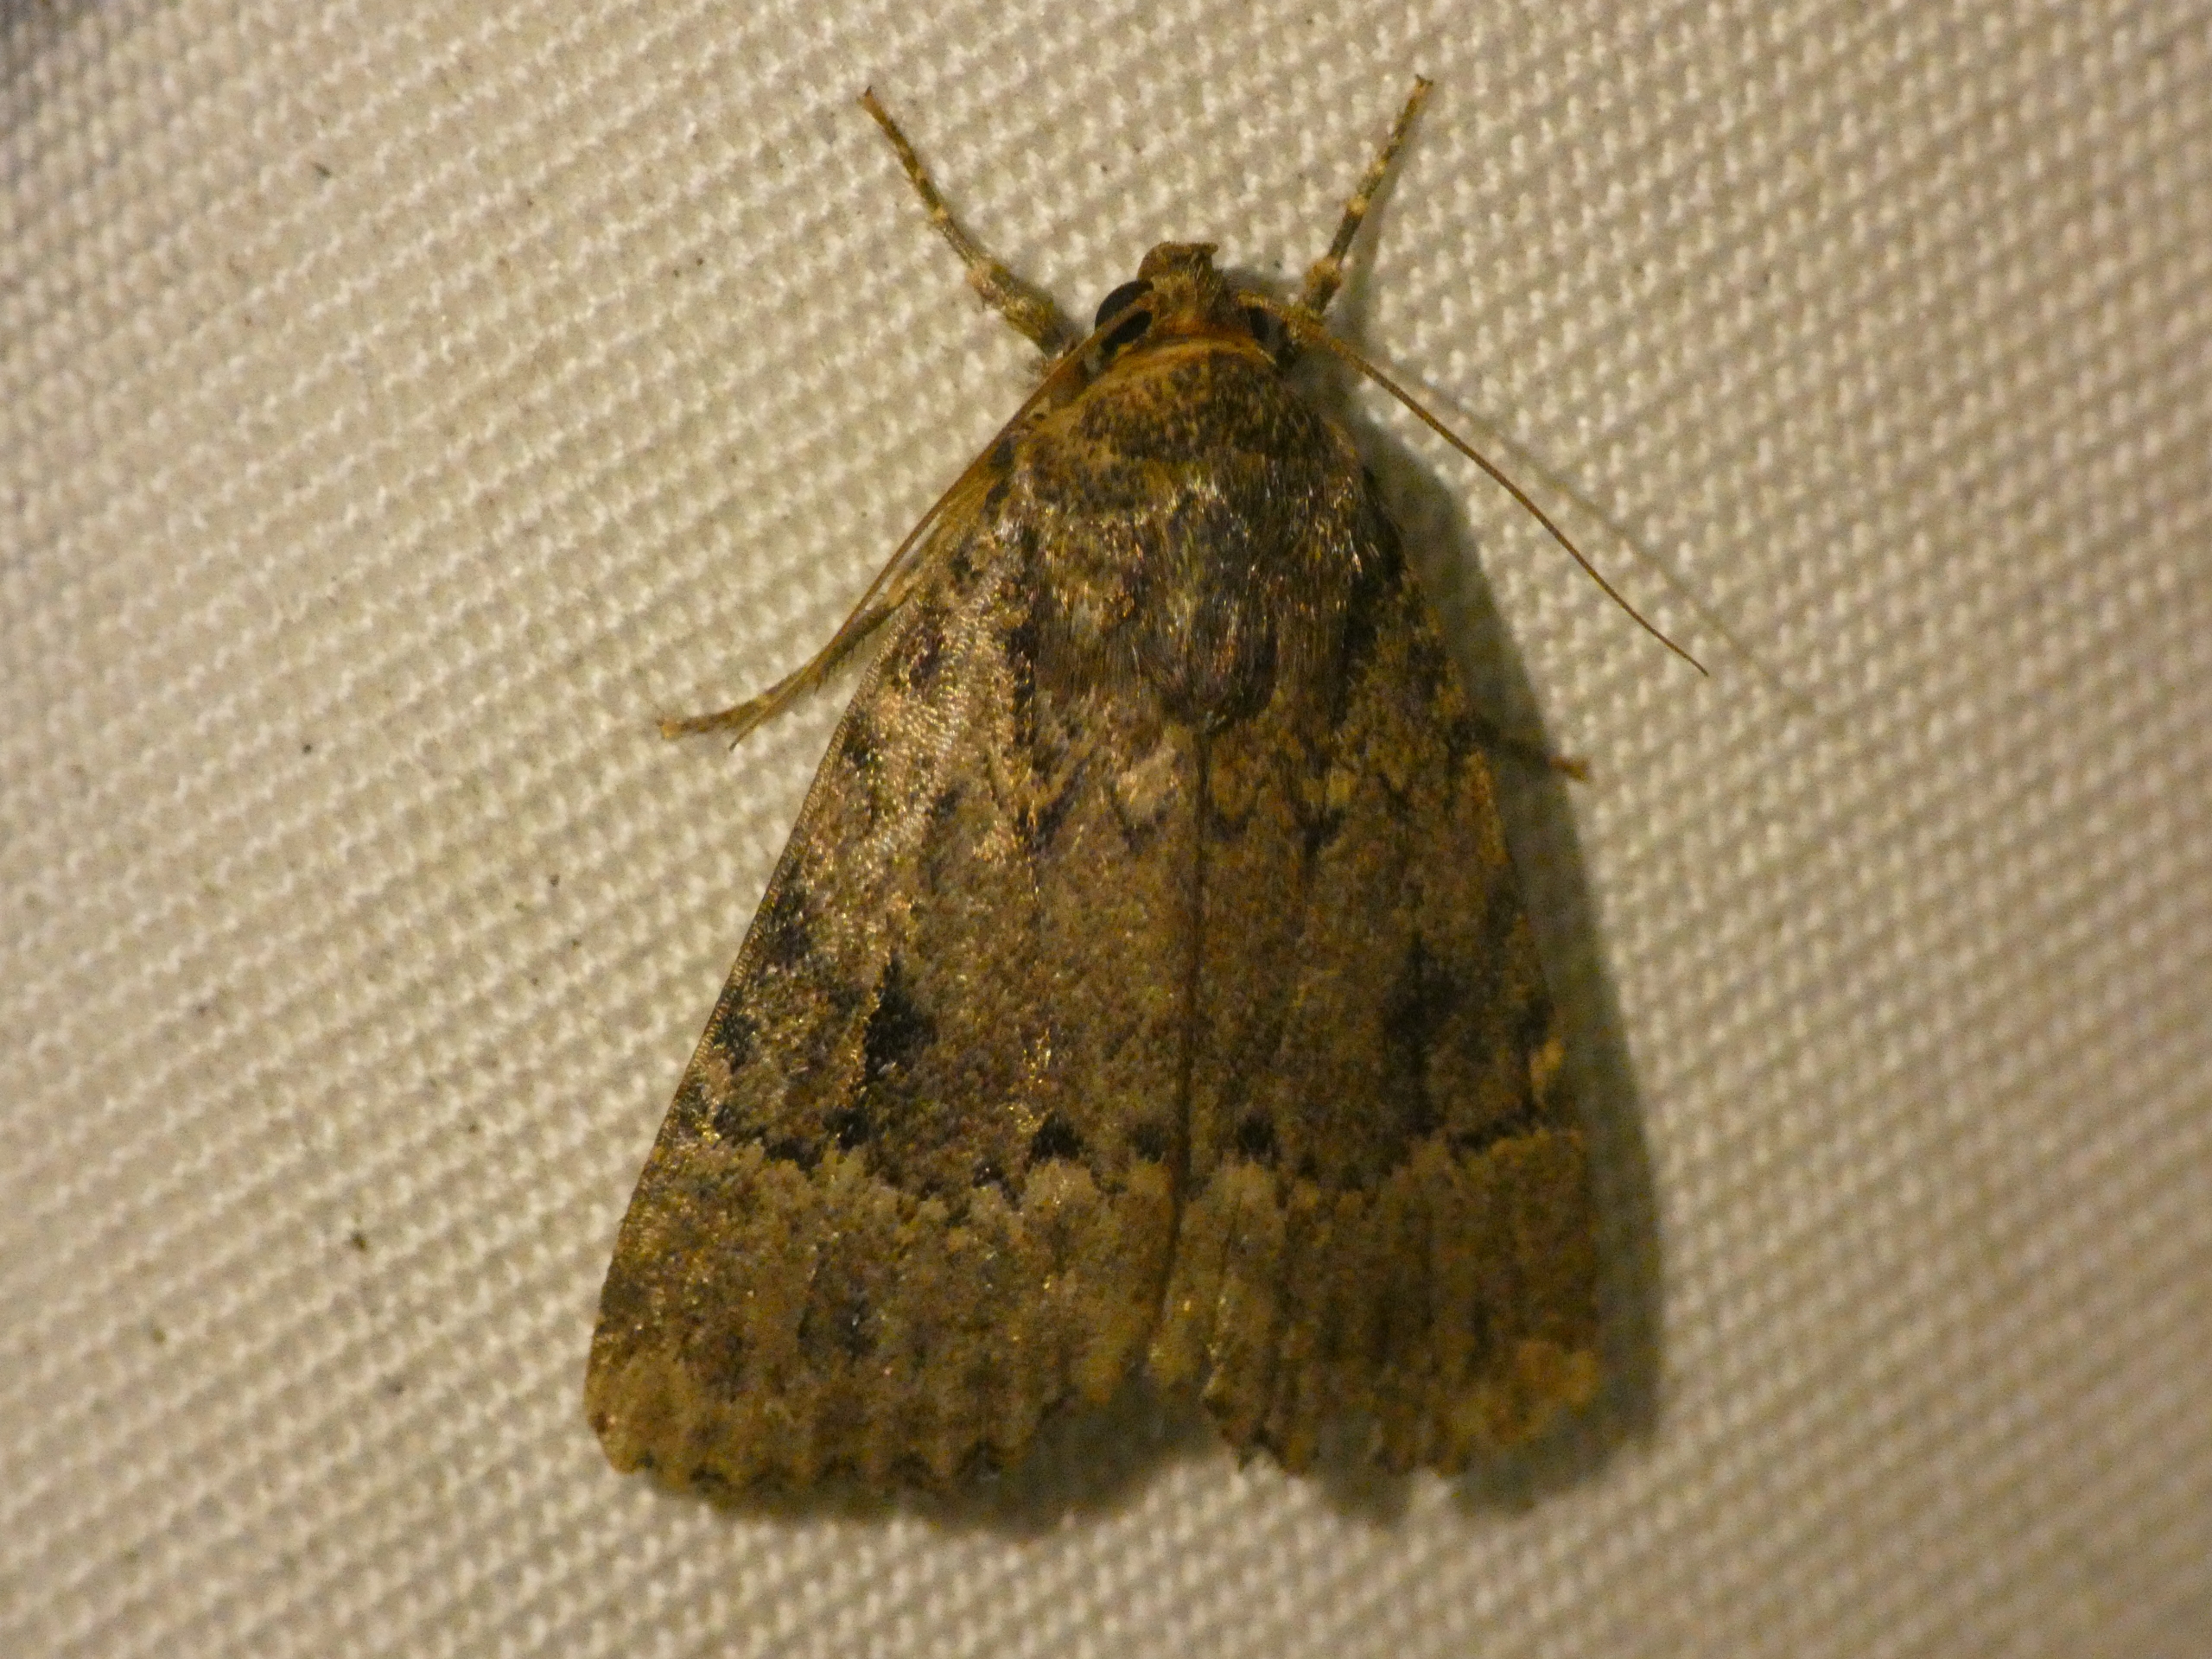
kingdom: Animalia
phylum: Arthropoda
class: Insecta
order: Lepidoptera
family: Noctuidae
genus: Amphipyra
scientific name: Amphipyra pyramidea
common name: Pyramideugle
